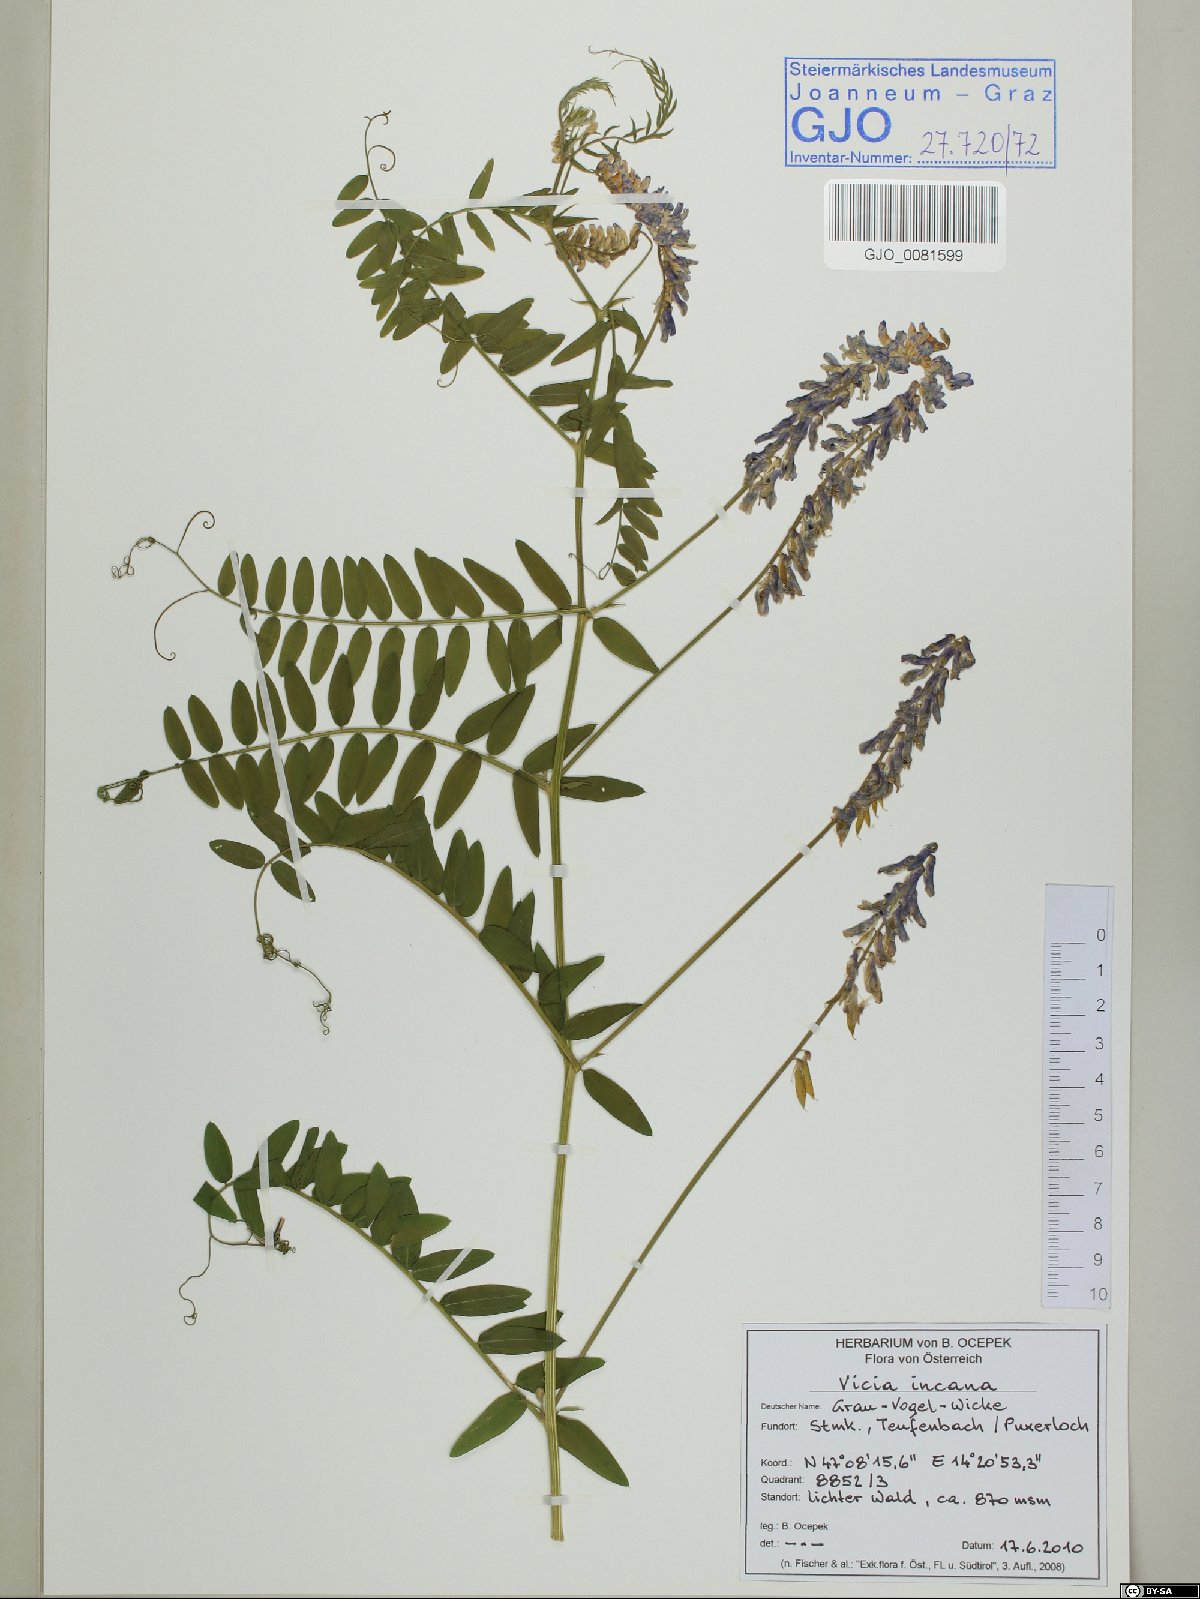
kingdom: Plantae
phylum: Tracheophyta
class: Magnoliopsida
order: Fabales
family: Fabaceae
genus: Vicia
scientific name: Vicia incana
